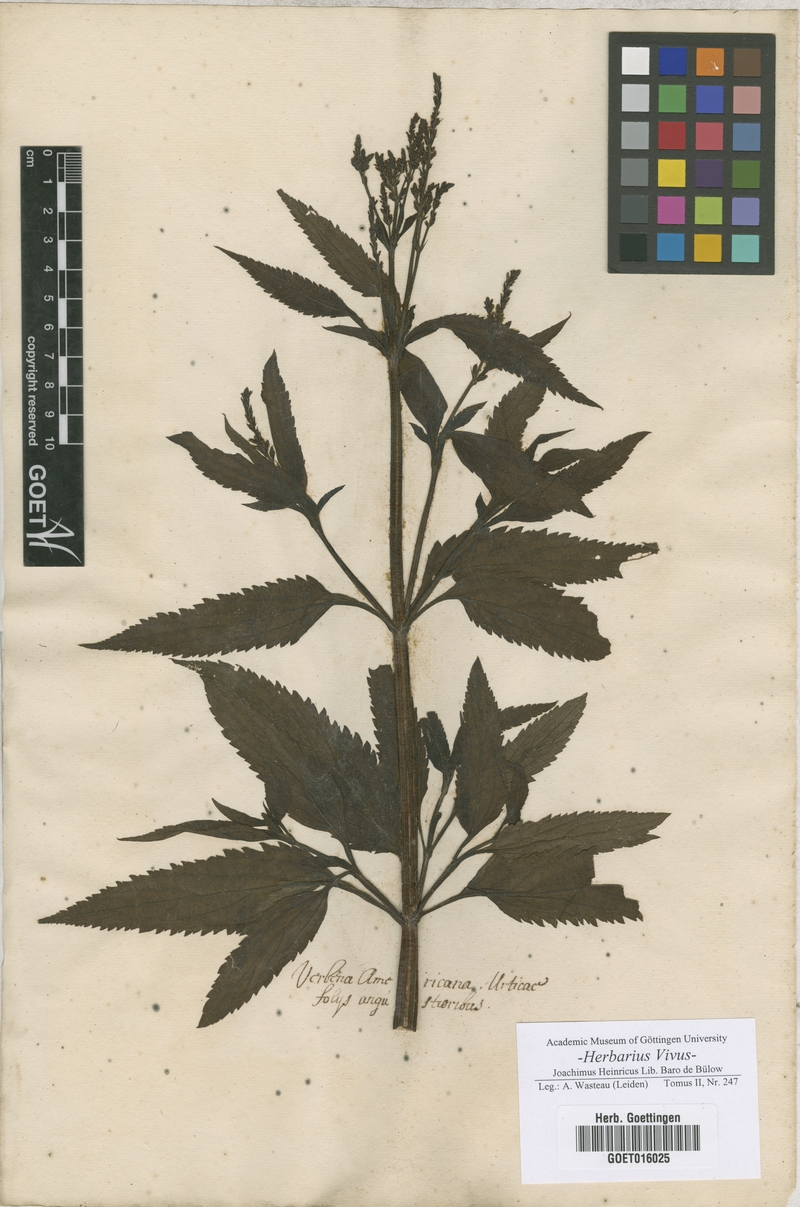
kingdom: Plantae
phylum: Tracheophyta
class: Magnoliopsida
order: Lamiales
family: Verbenaceae
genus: Verbena
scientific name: Verbena
